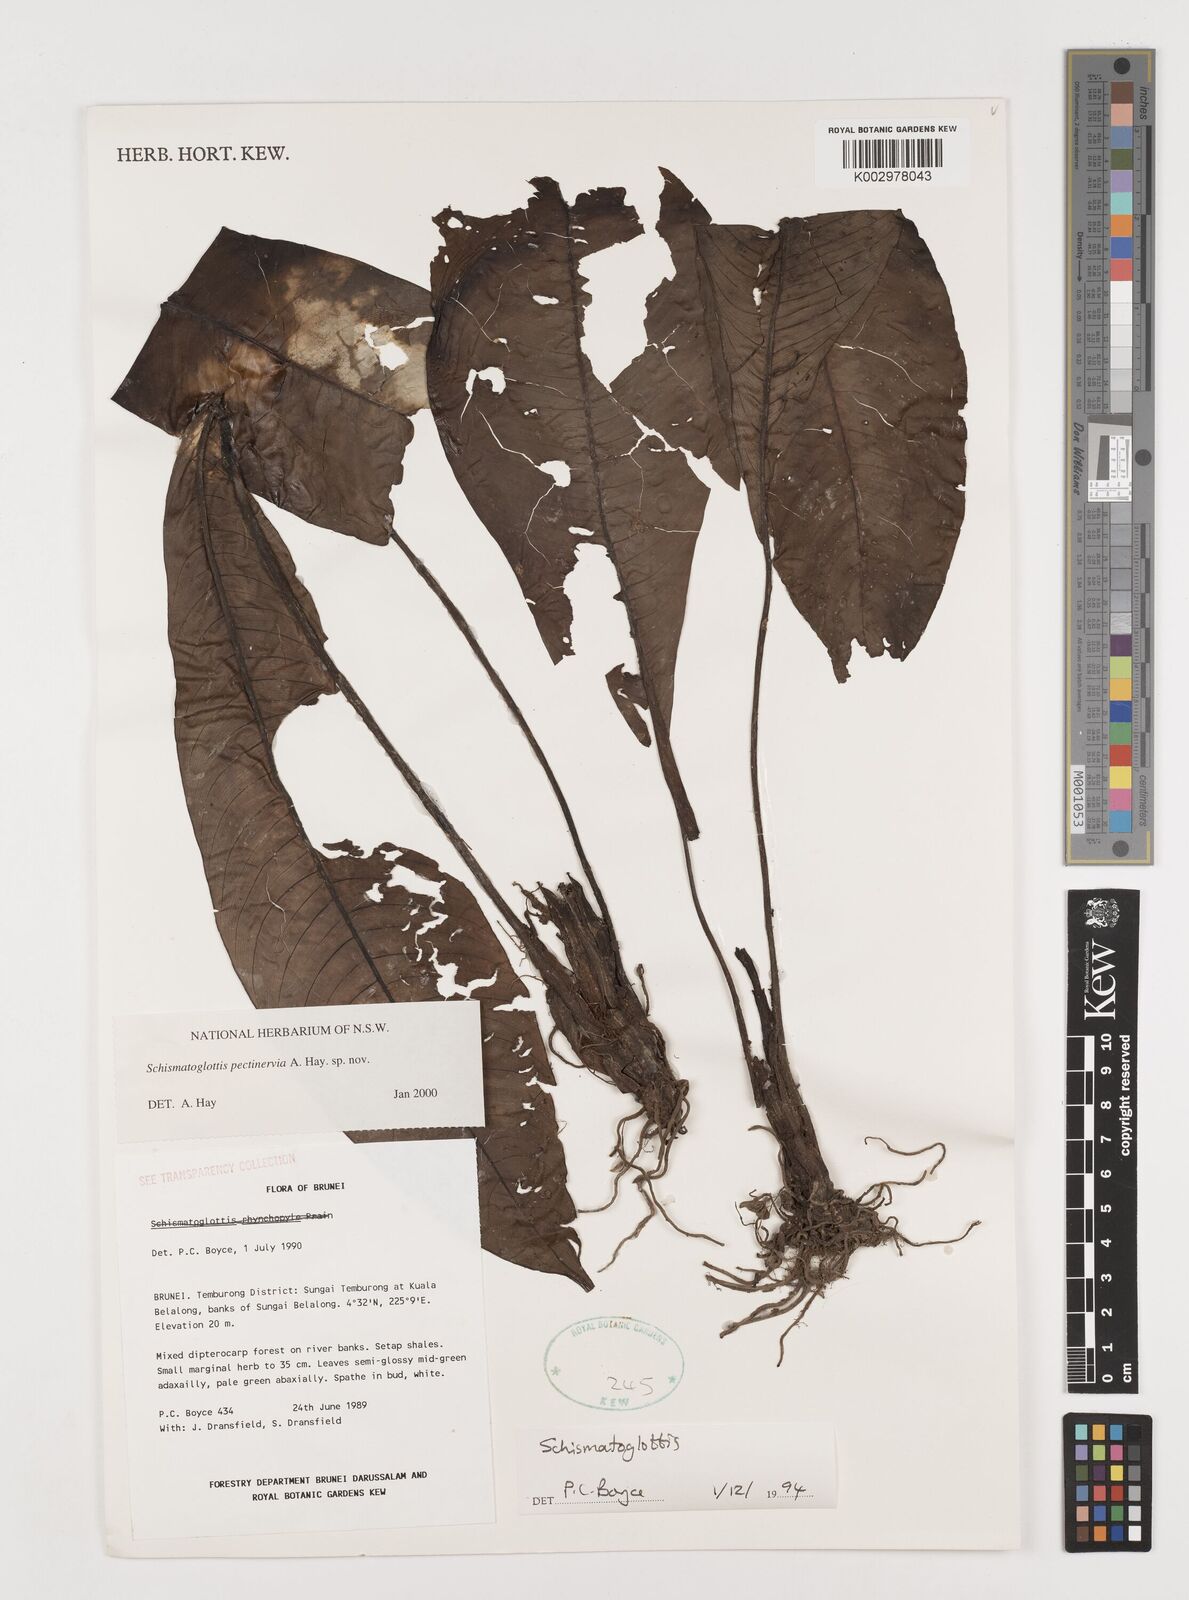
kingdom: Plantae
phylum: Tracheophyta
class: Liliopsida
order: Alismatales
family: Araceae
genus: Schismatoglottis
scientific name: Schismatoglottis pectinervia
